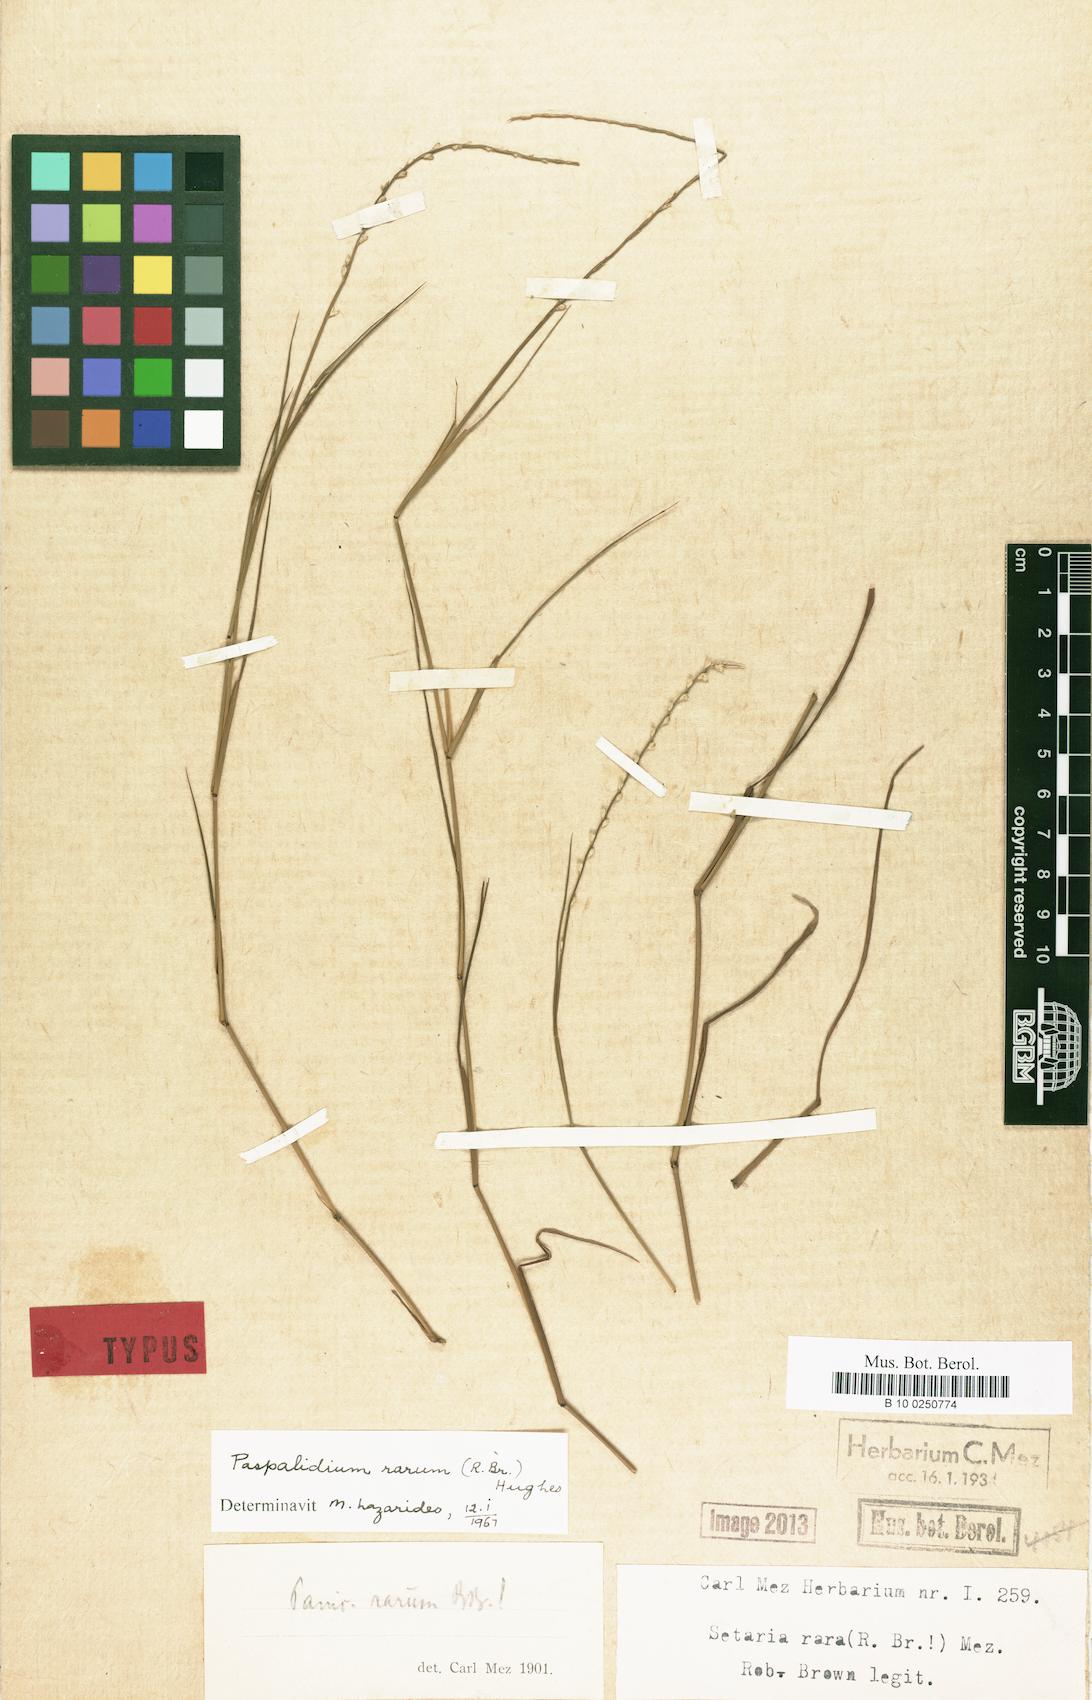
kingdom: Plantae
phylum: Tracheophyta
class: Liliopsida
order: Poales
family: Poaceae
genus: Setaria
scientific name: Setaria rara
